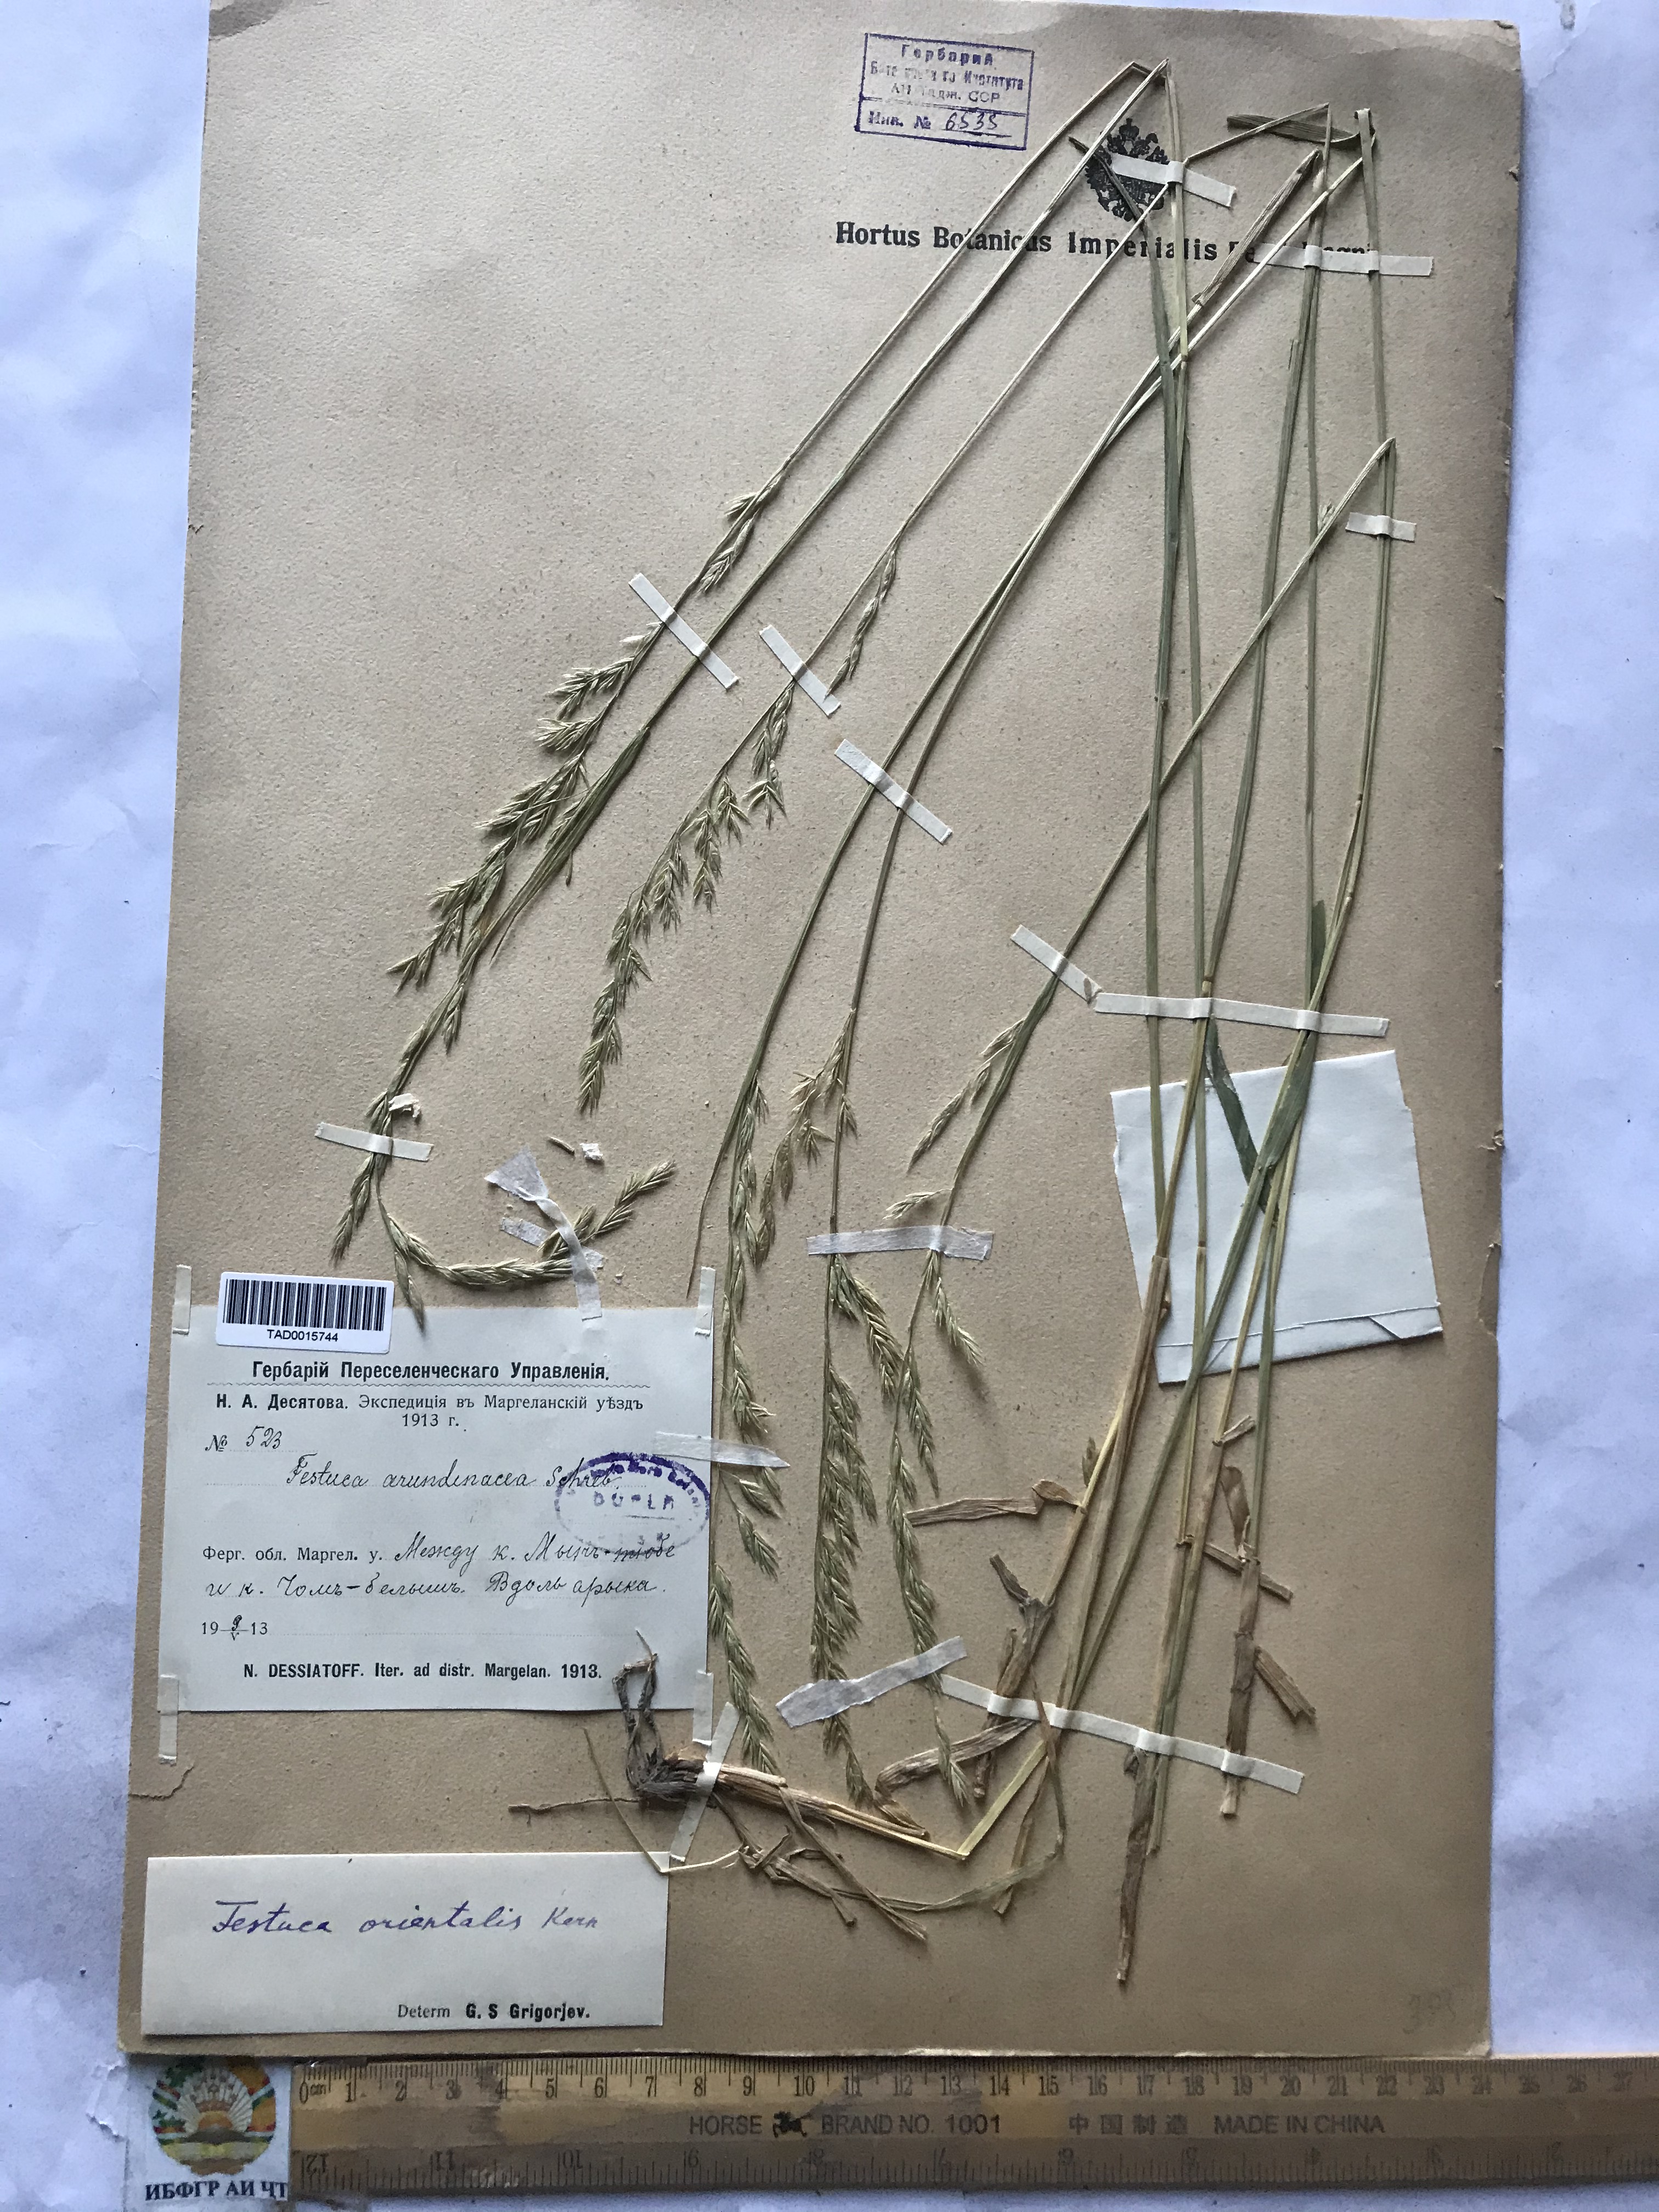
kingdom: Plantae
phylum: Tracheophyta
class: Liliopsida
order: Poales
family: Poaceae
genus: Lolium
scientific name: Lolium arundinaceum
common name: Reed fescue
